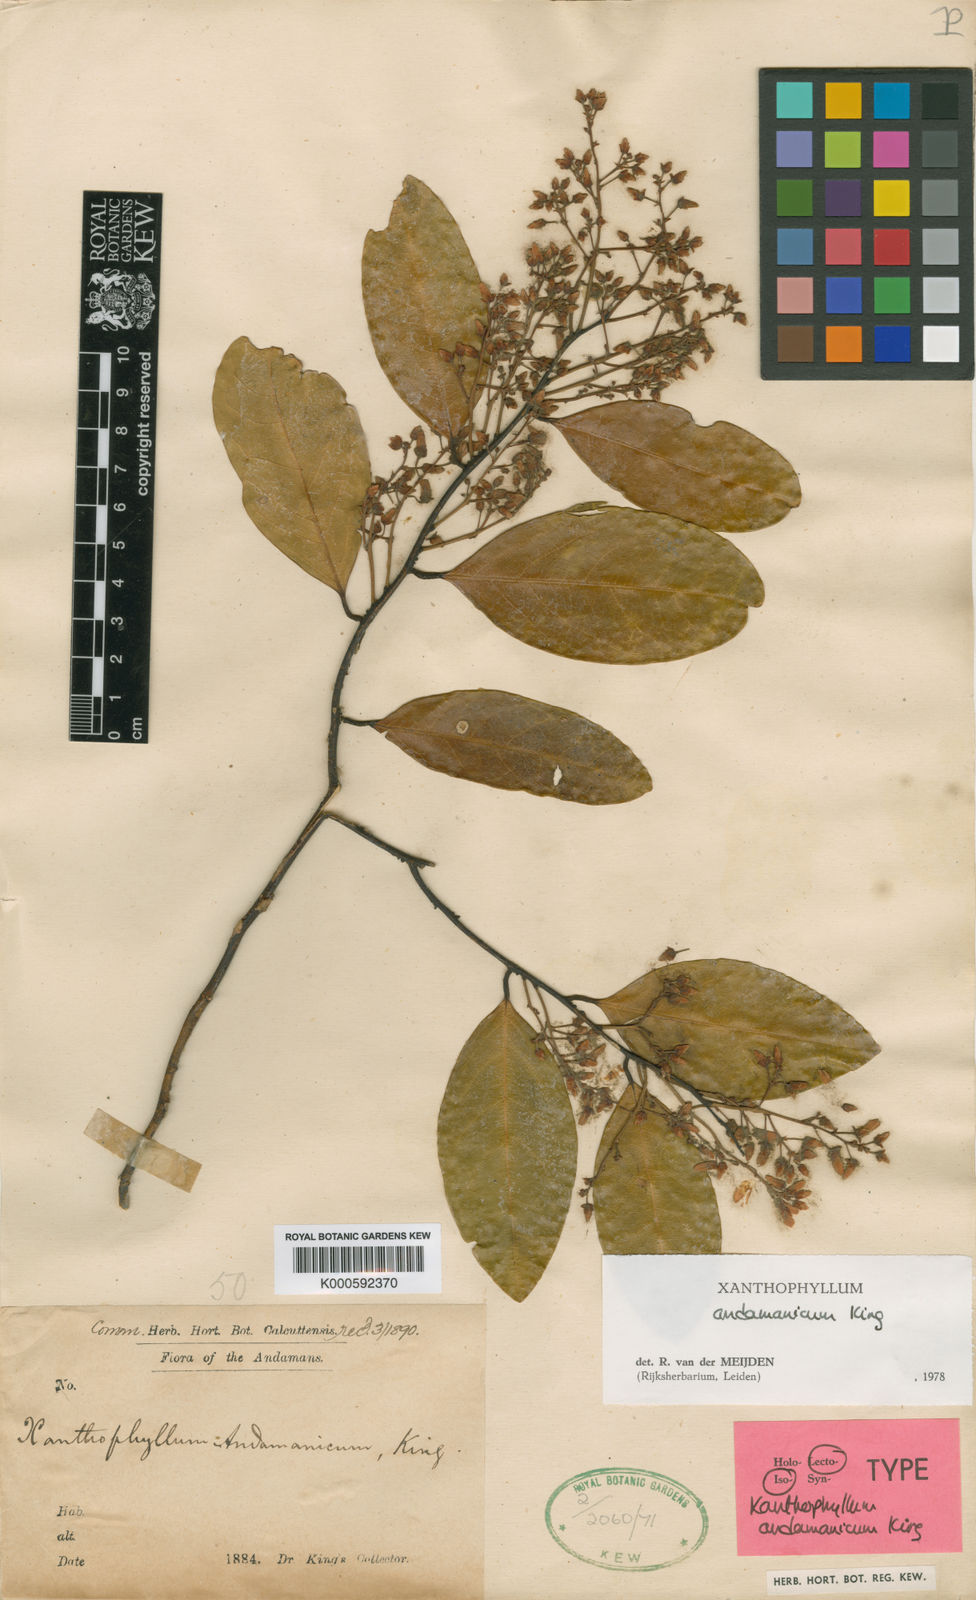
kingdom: Plantae
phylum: Tracheophyta
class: Magnoliopsida
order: Fabales
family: Polygalaceae
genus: Xanthophyllum
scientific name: Xanthophyllum andamanicum
